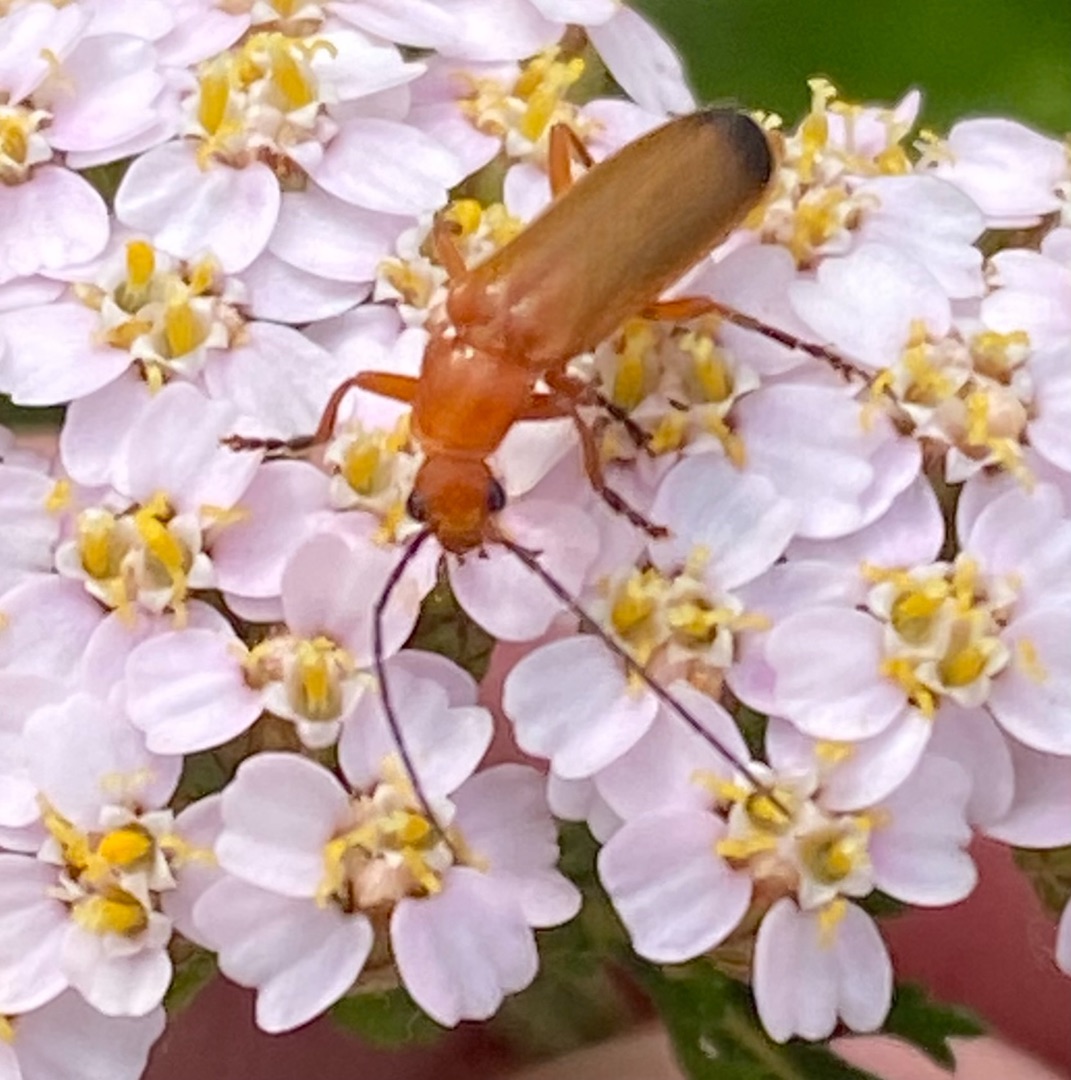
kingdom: Animalia
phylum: Arthropoda
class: Insecta
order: Coleoptera
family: Cantharidae
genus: Rhagonycha
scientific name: Rhagonycha fulva
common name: Præstebille
